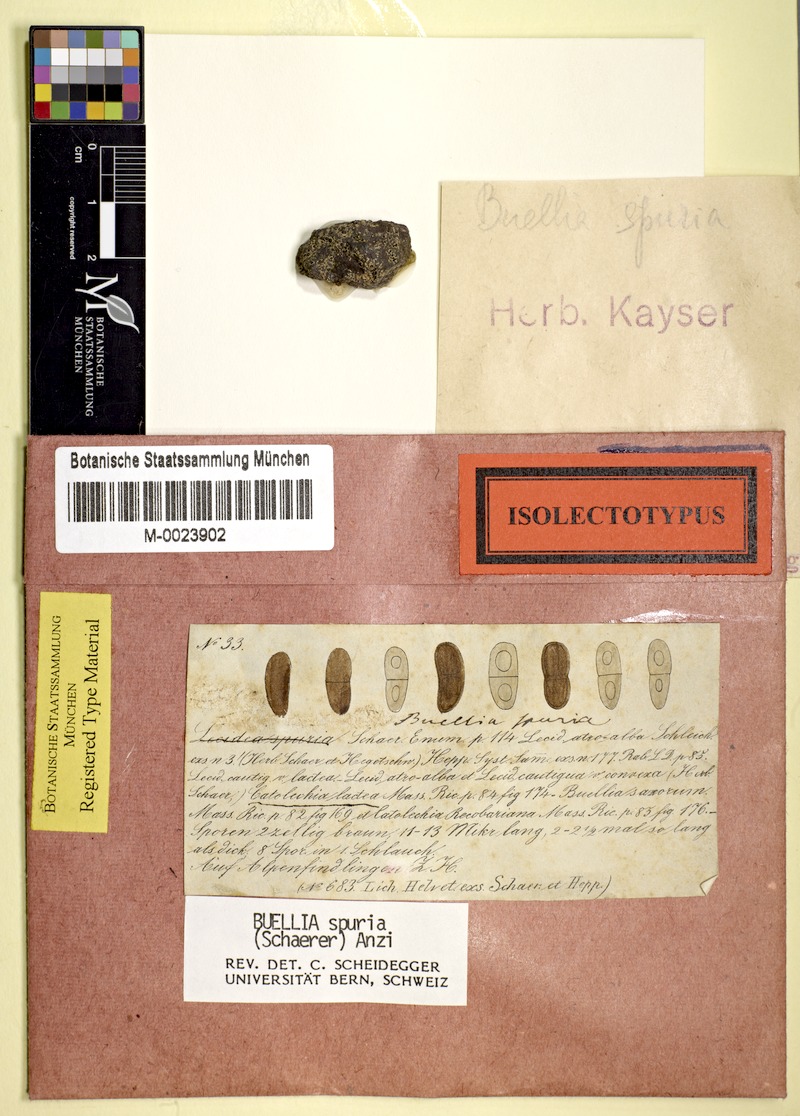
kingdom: Fungi
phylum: Ascomycota
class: Lecanoromycetes
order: Caliciales
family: Caliciaceae
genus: Buellia
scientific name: Buellia spuria
